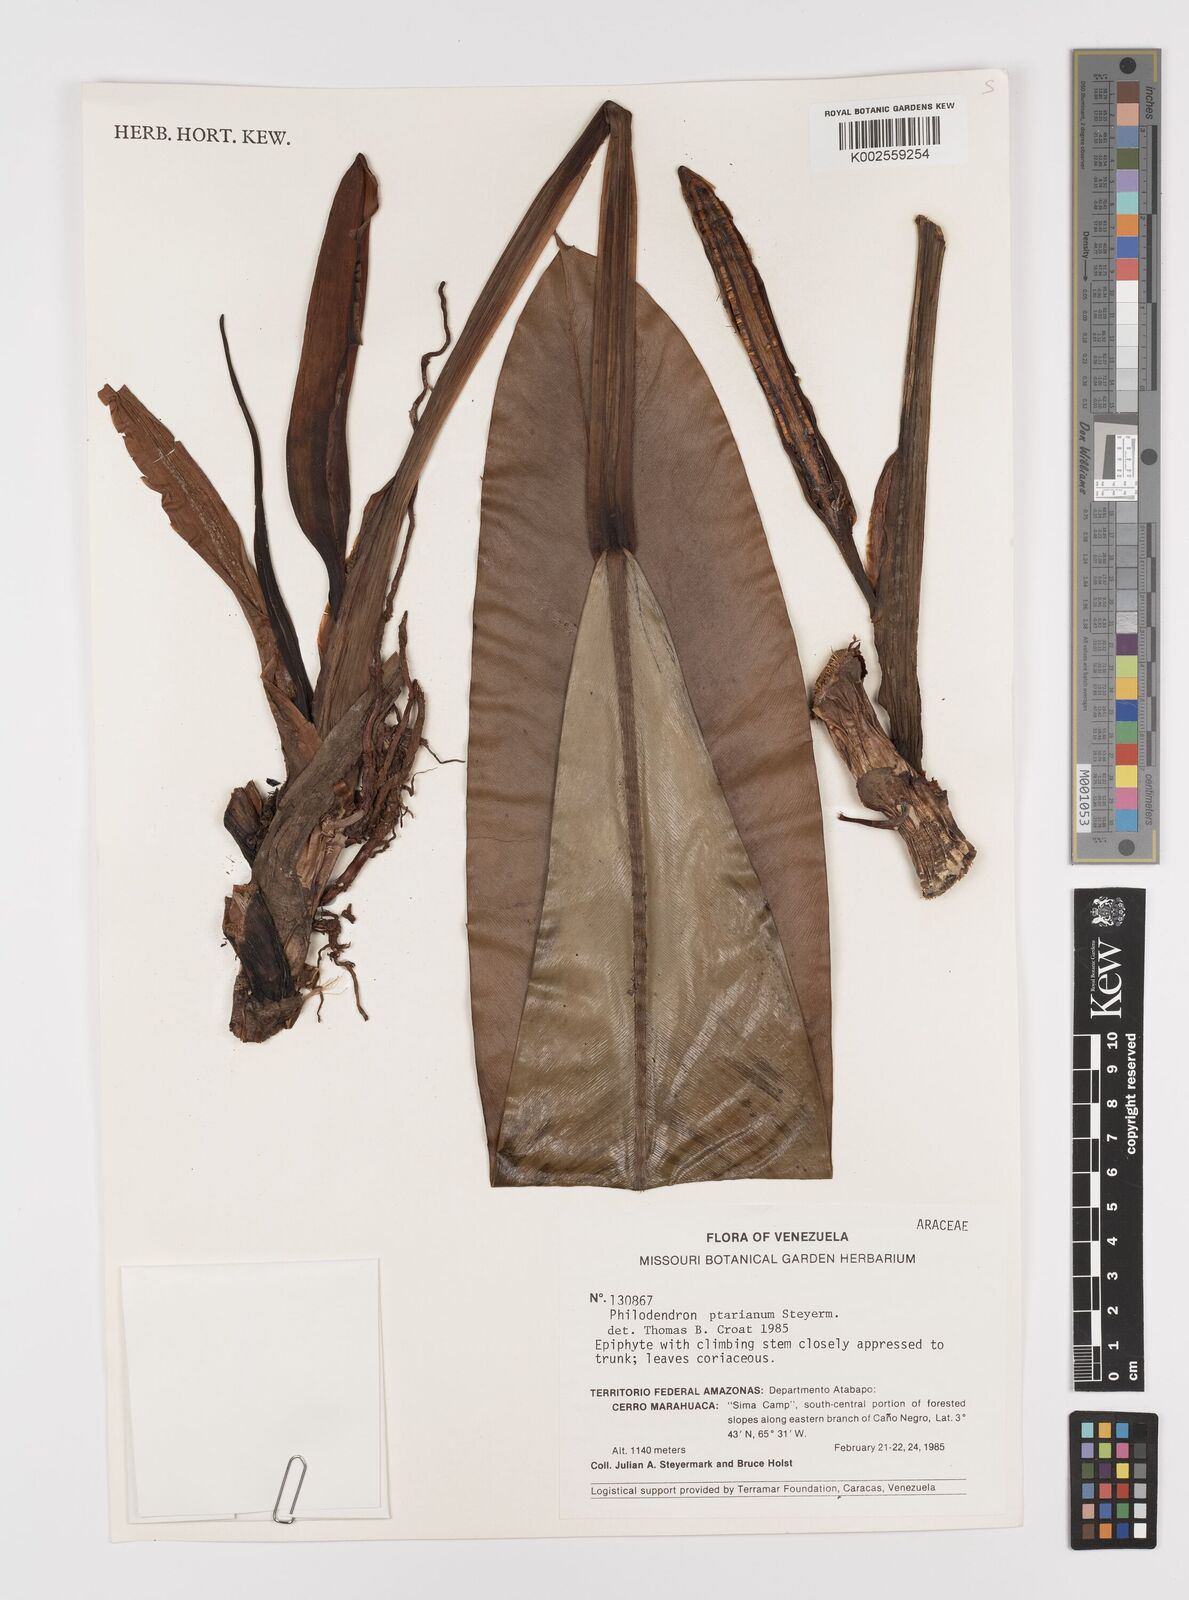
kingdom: Plantae
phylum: Tracheophyta
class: Liliopsida
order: Alismatales
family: Araceae
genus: Philodendron
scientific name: Philodendron callosum
